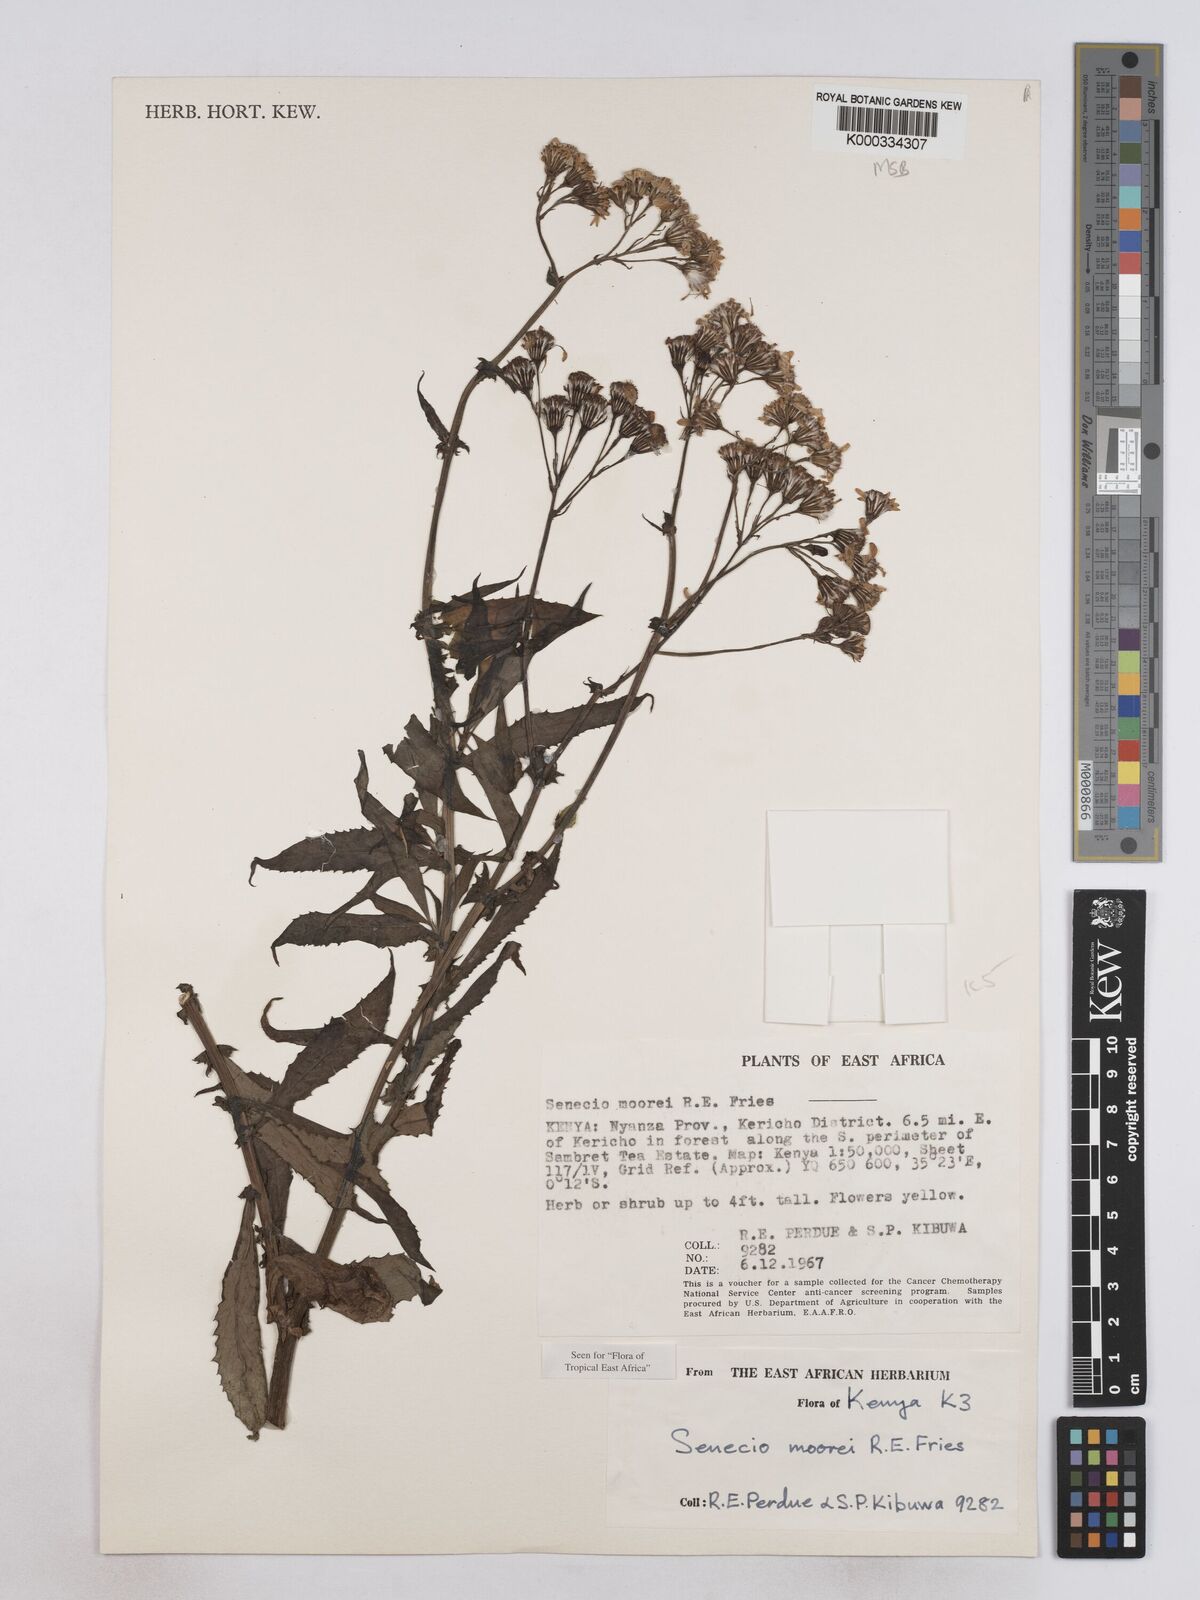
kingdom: Plantae
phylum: Tracheophyta
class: Magnoliopsida
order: Asterales
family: Asteraceae
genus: Senecio
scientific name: Senecio moorei
